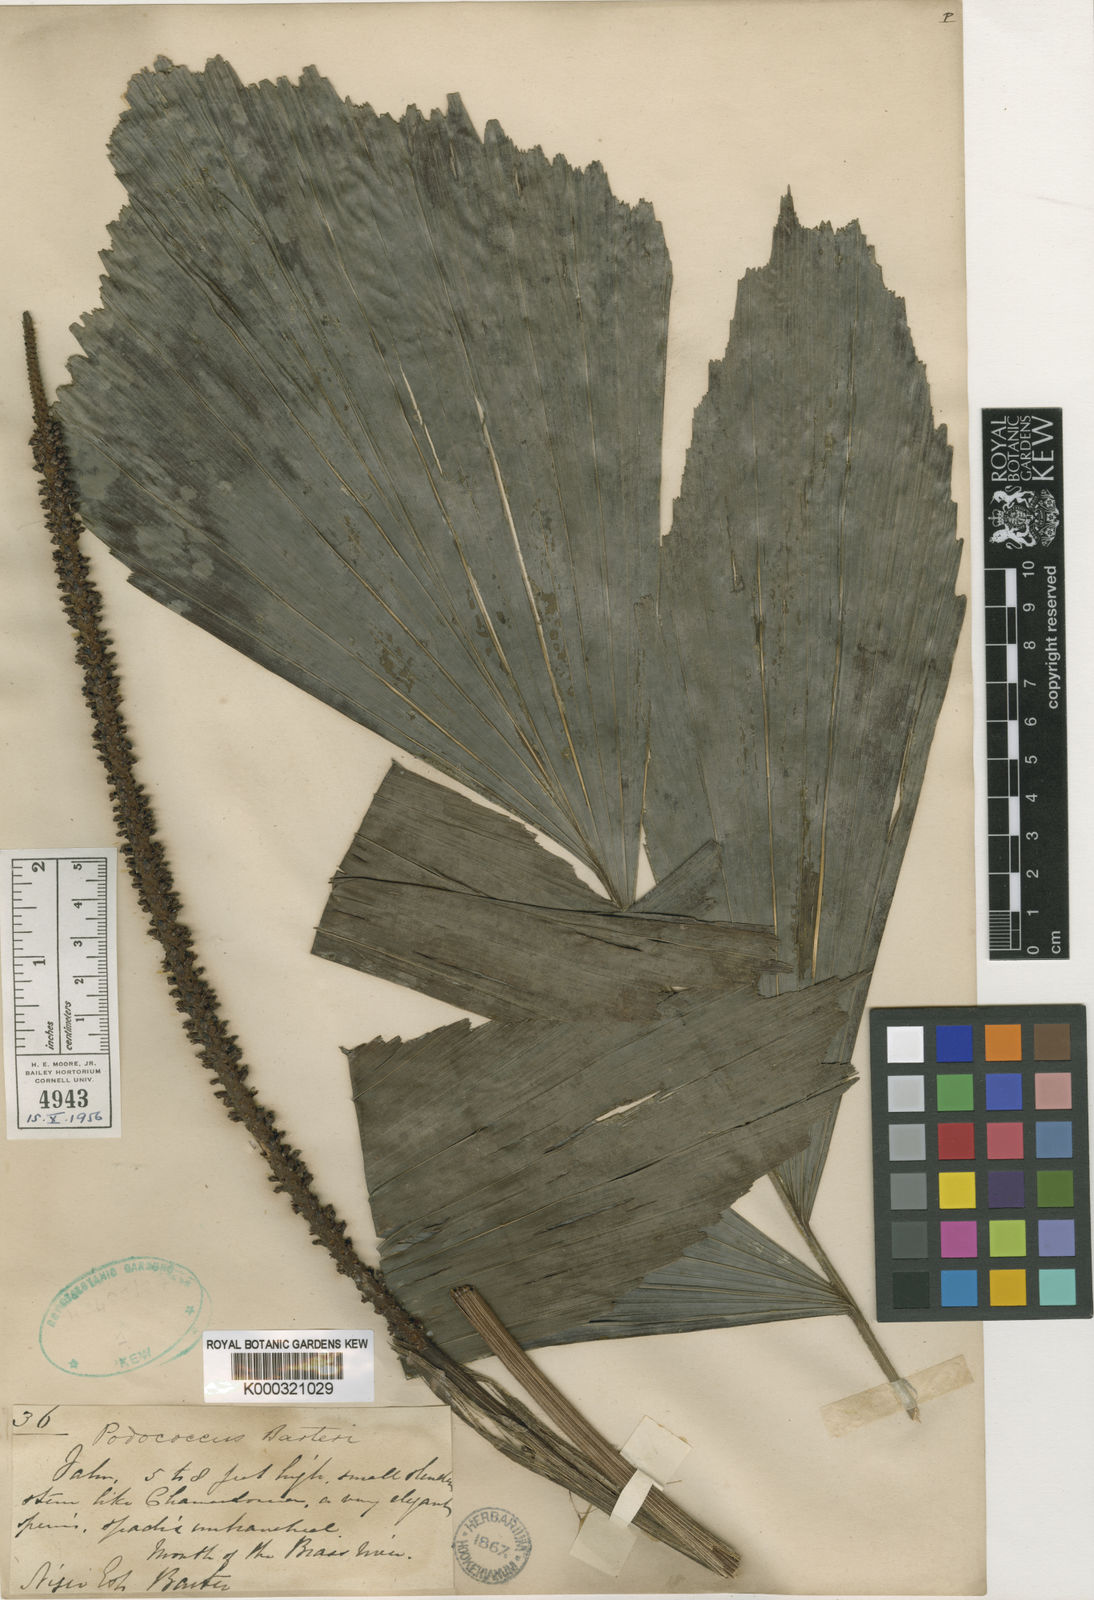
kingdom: Plantae
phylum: Tracheophyta
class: Liliopsida
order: Arecales
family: Arecaceae
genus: Podococcus
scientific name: Podococcus barteri
